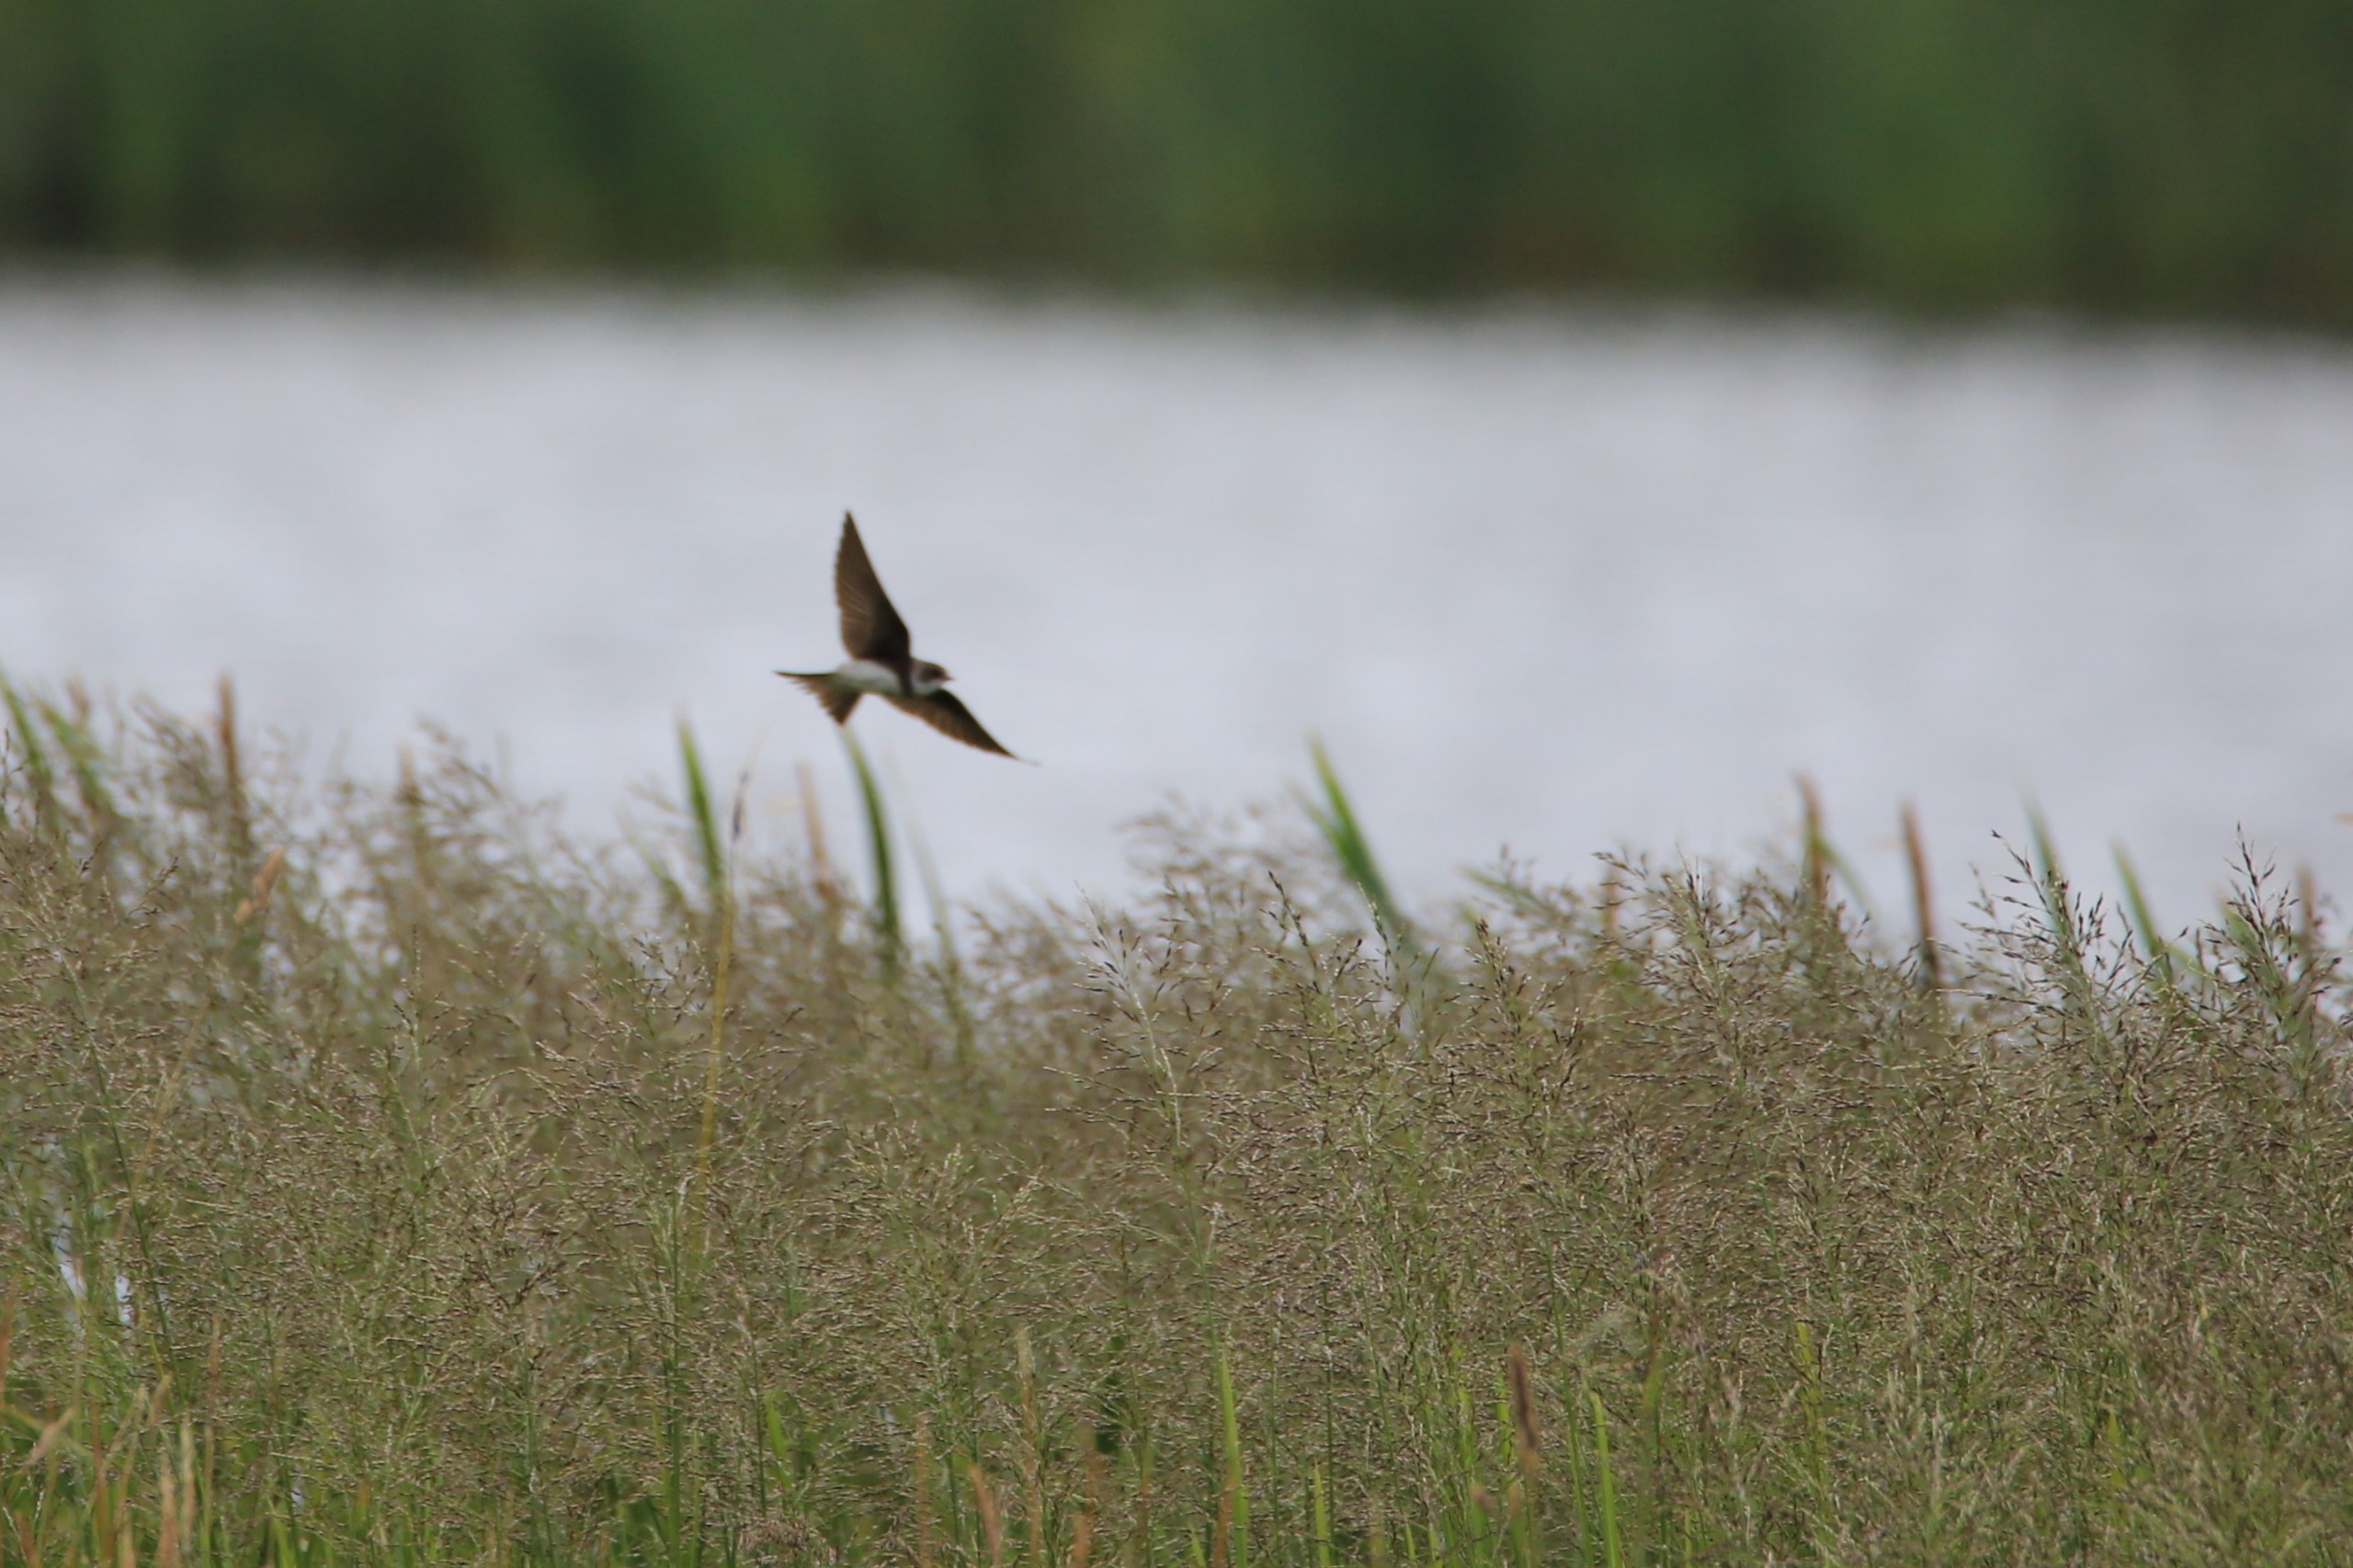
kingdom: Animalia
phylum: Chordata
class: Aves
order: Passeriformes
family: Hirundinidae
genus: Riparia
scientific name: Riparia riparia
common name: Digesvale
